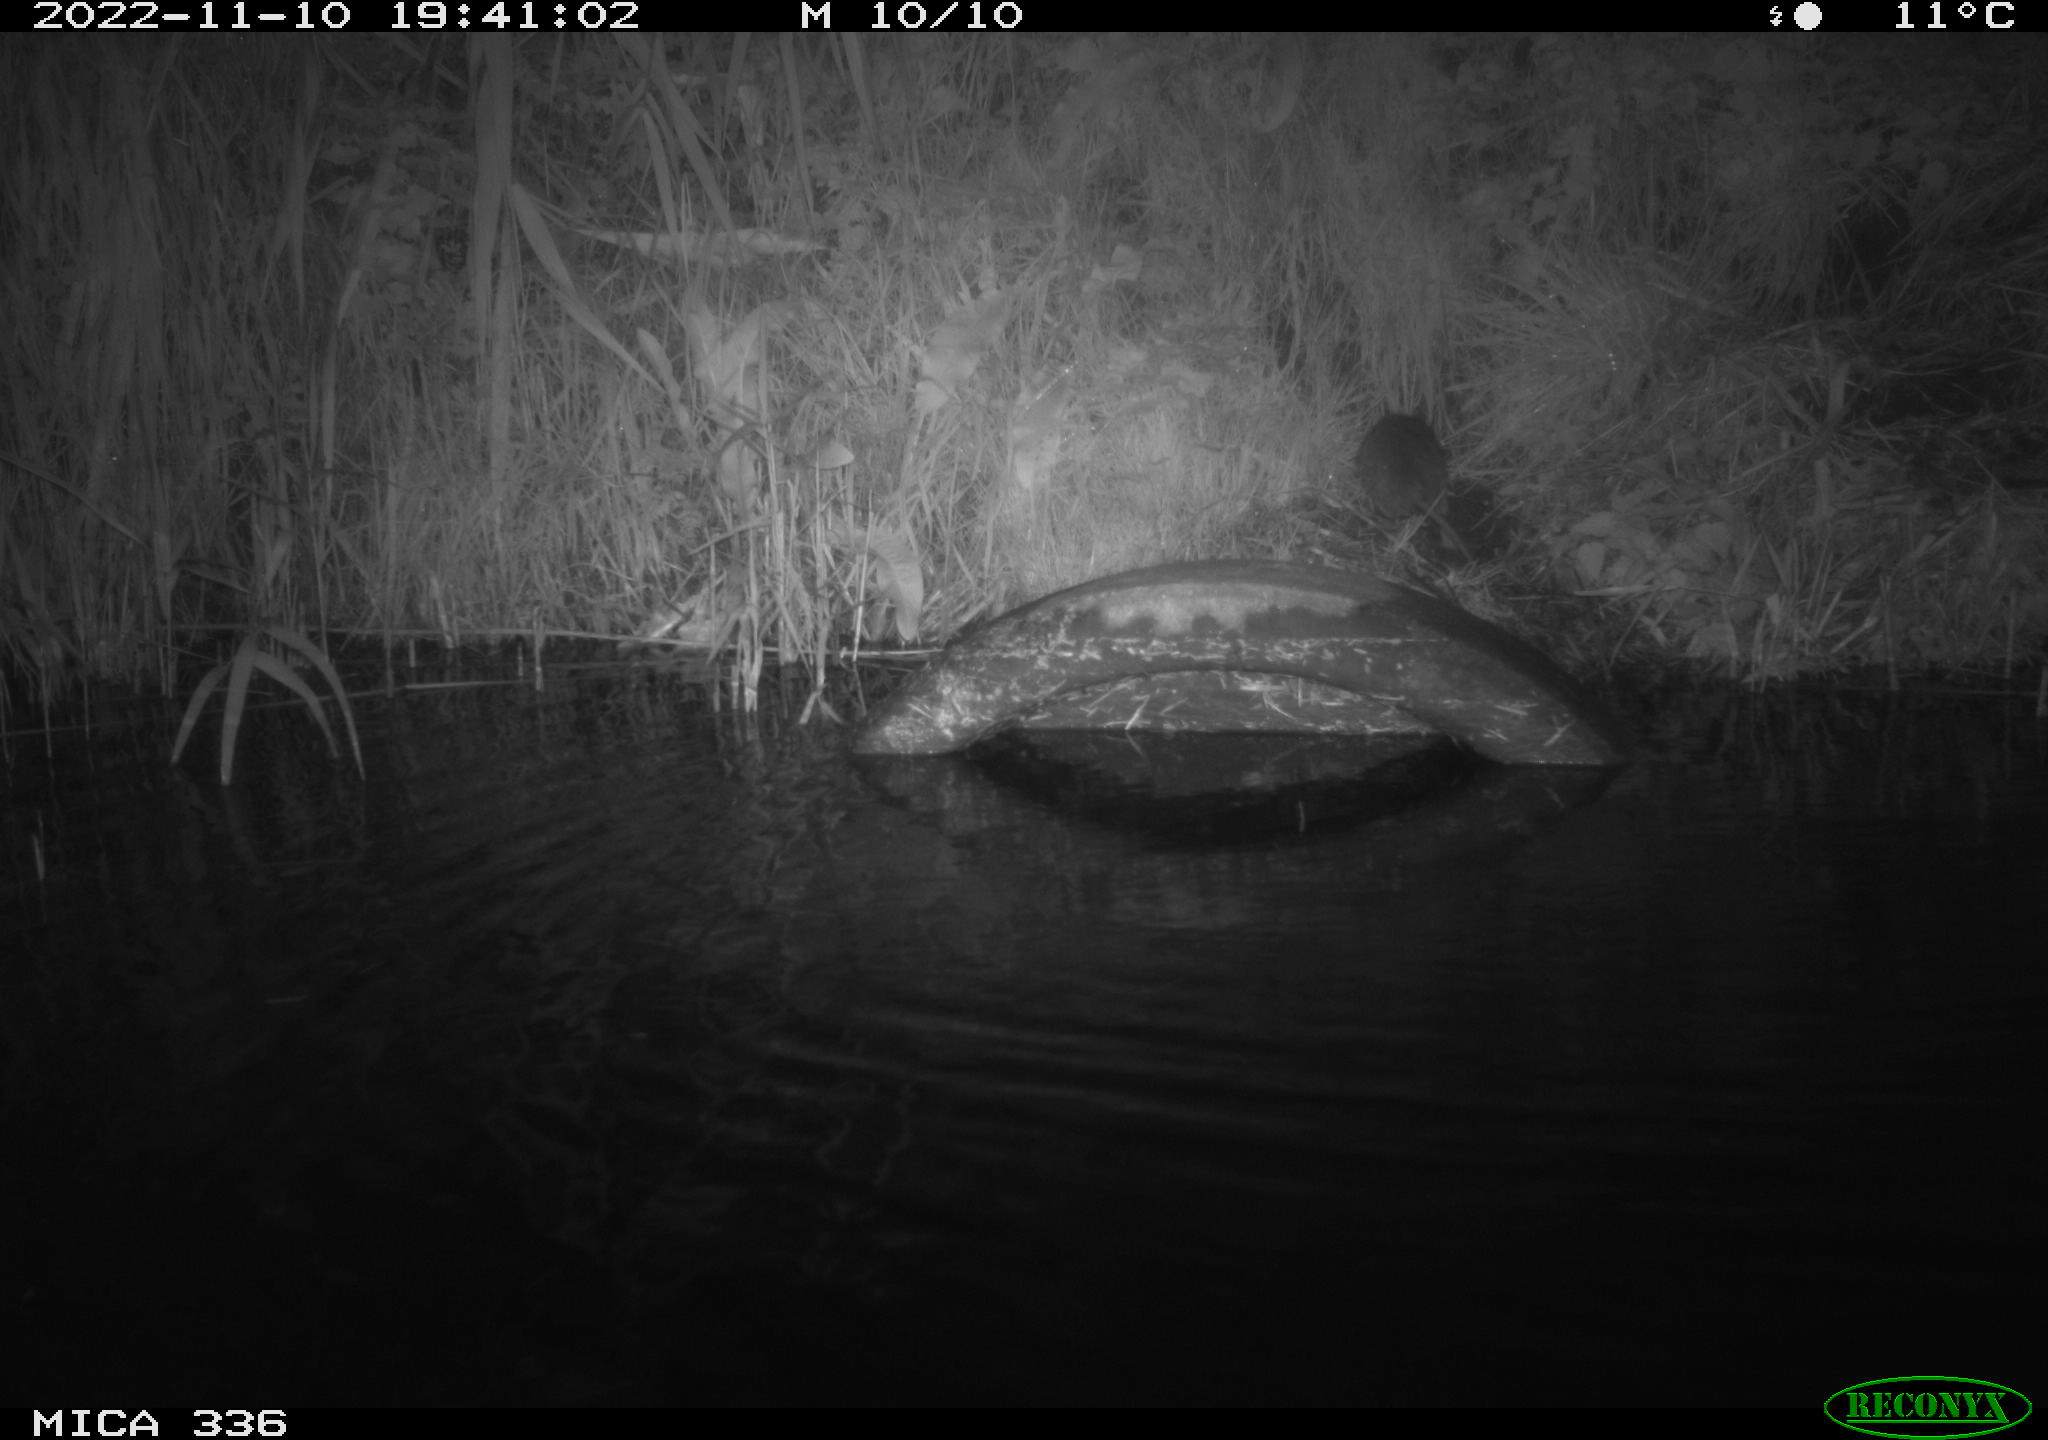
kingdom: Animalia
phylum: Chordata
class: Mammalia
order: Rodentia
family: Muridae
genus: Rattus
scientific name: Rattus norvegicus
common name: Brown rat
